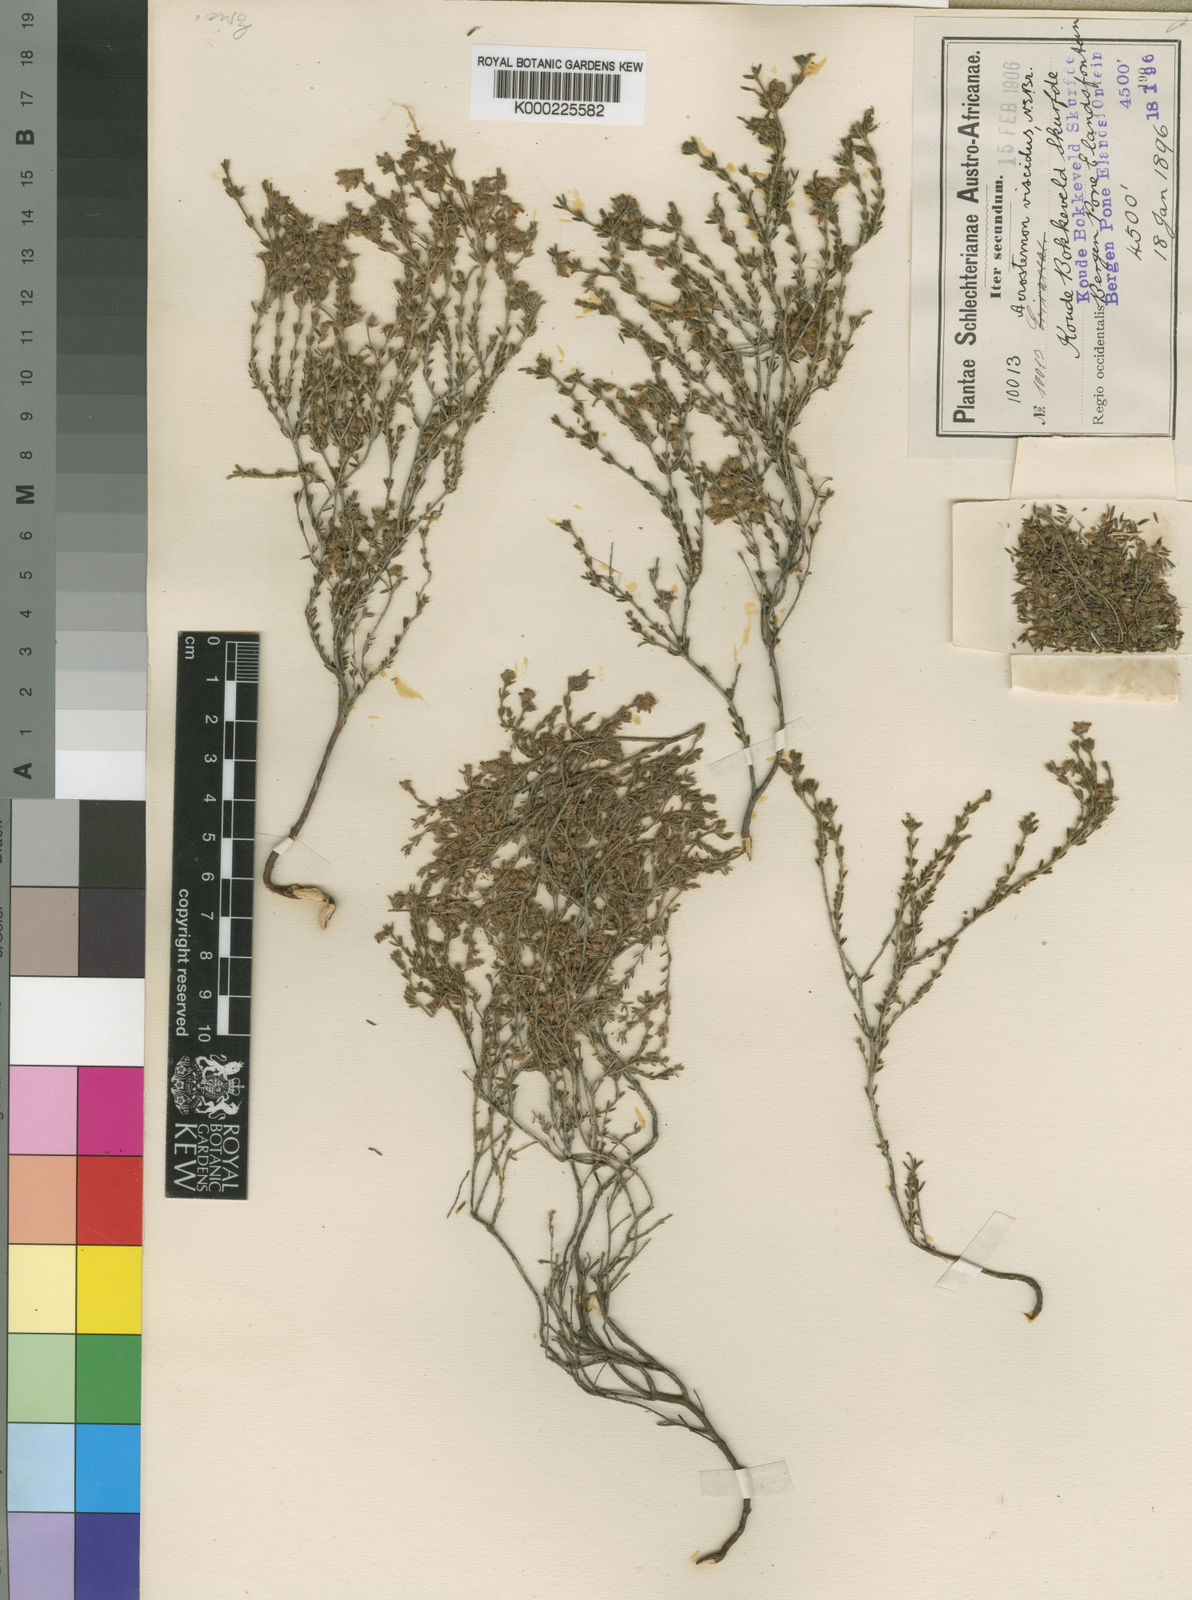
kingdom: Plantae
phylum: Tracheophyta
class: Magnoliopsida
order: Ericales
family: Ericaceae
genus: Erica
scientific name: Erica arachnocalyx
